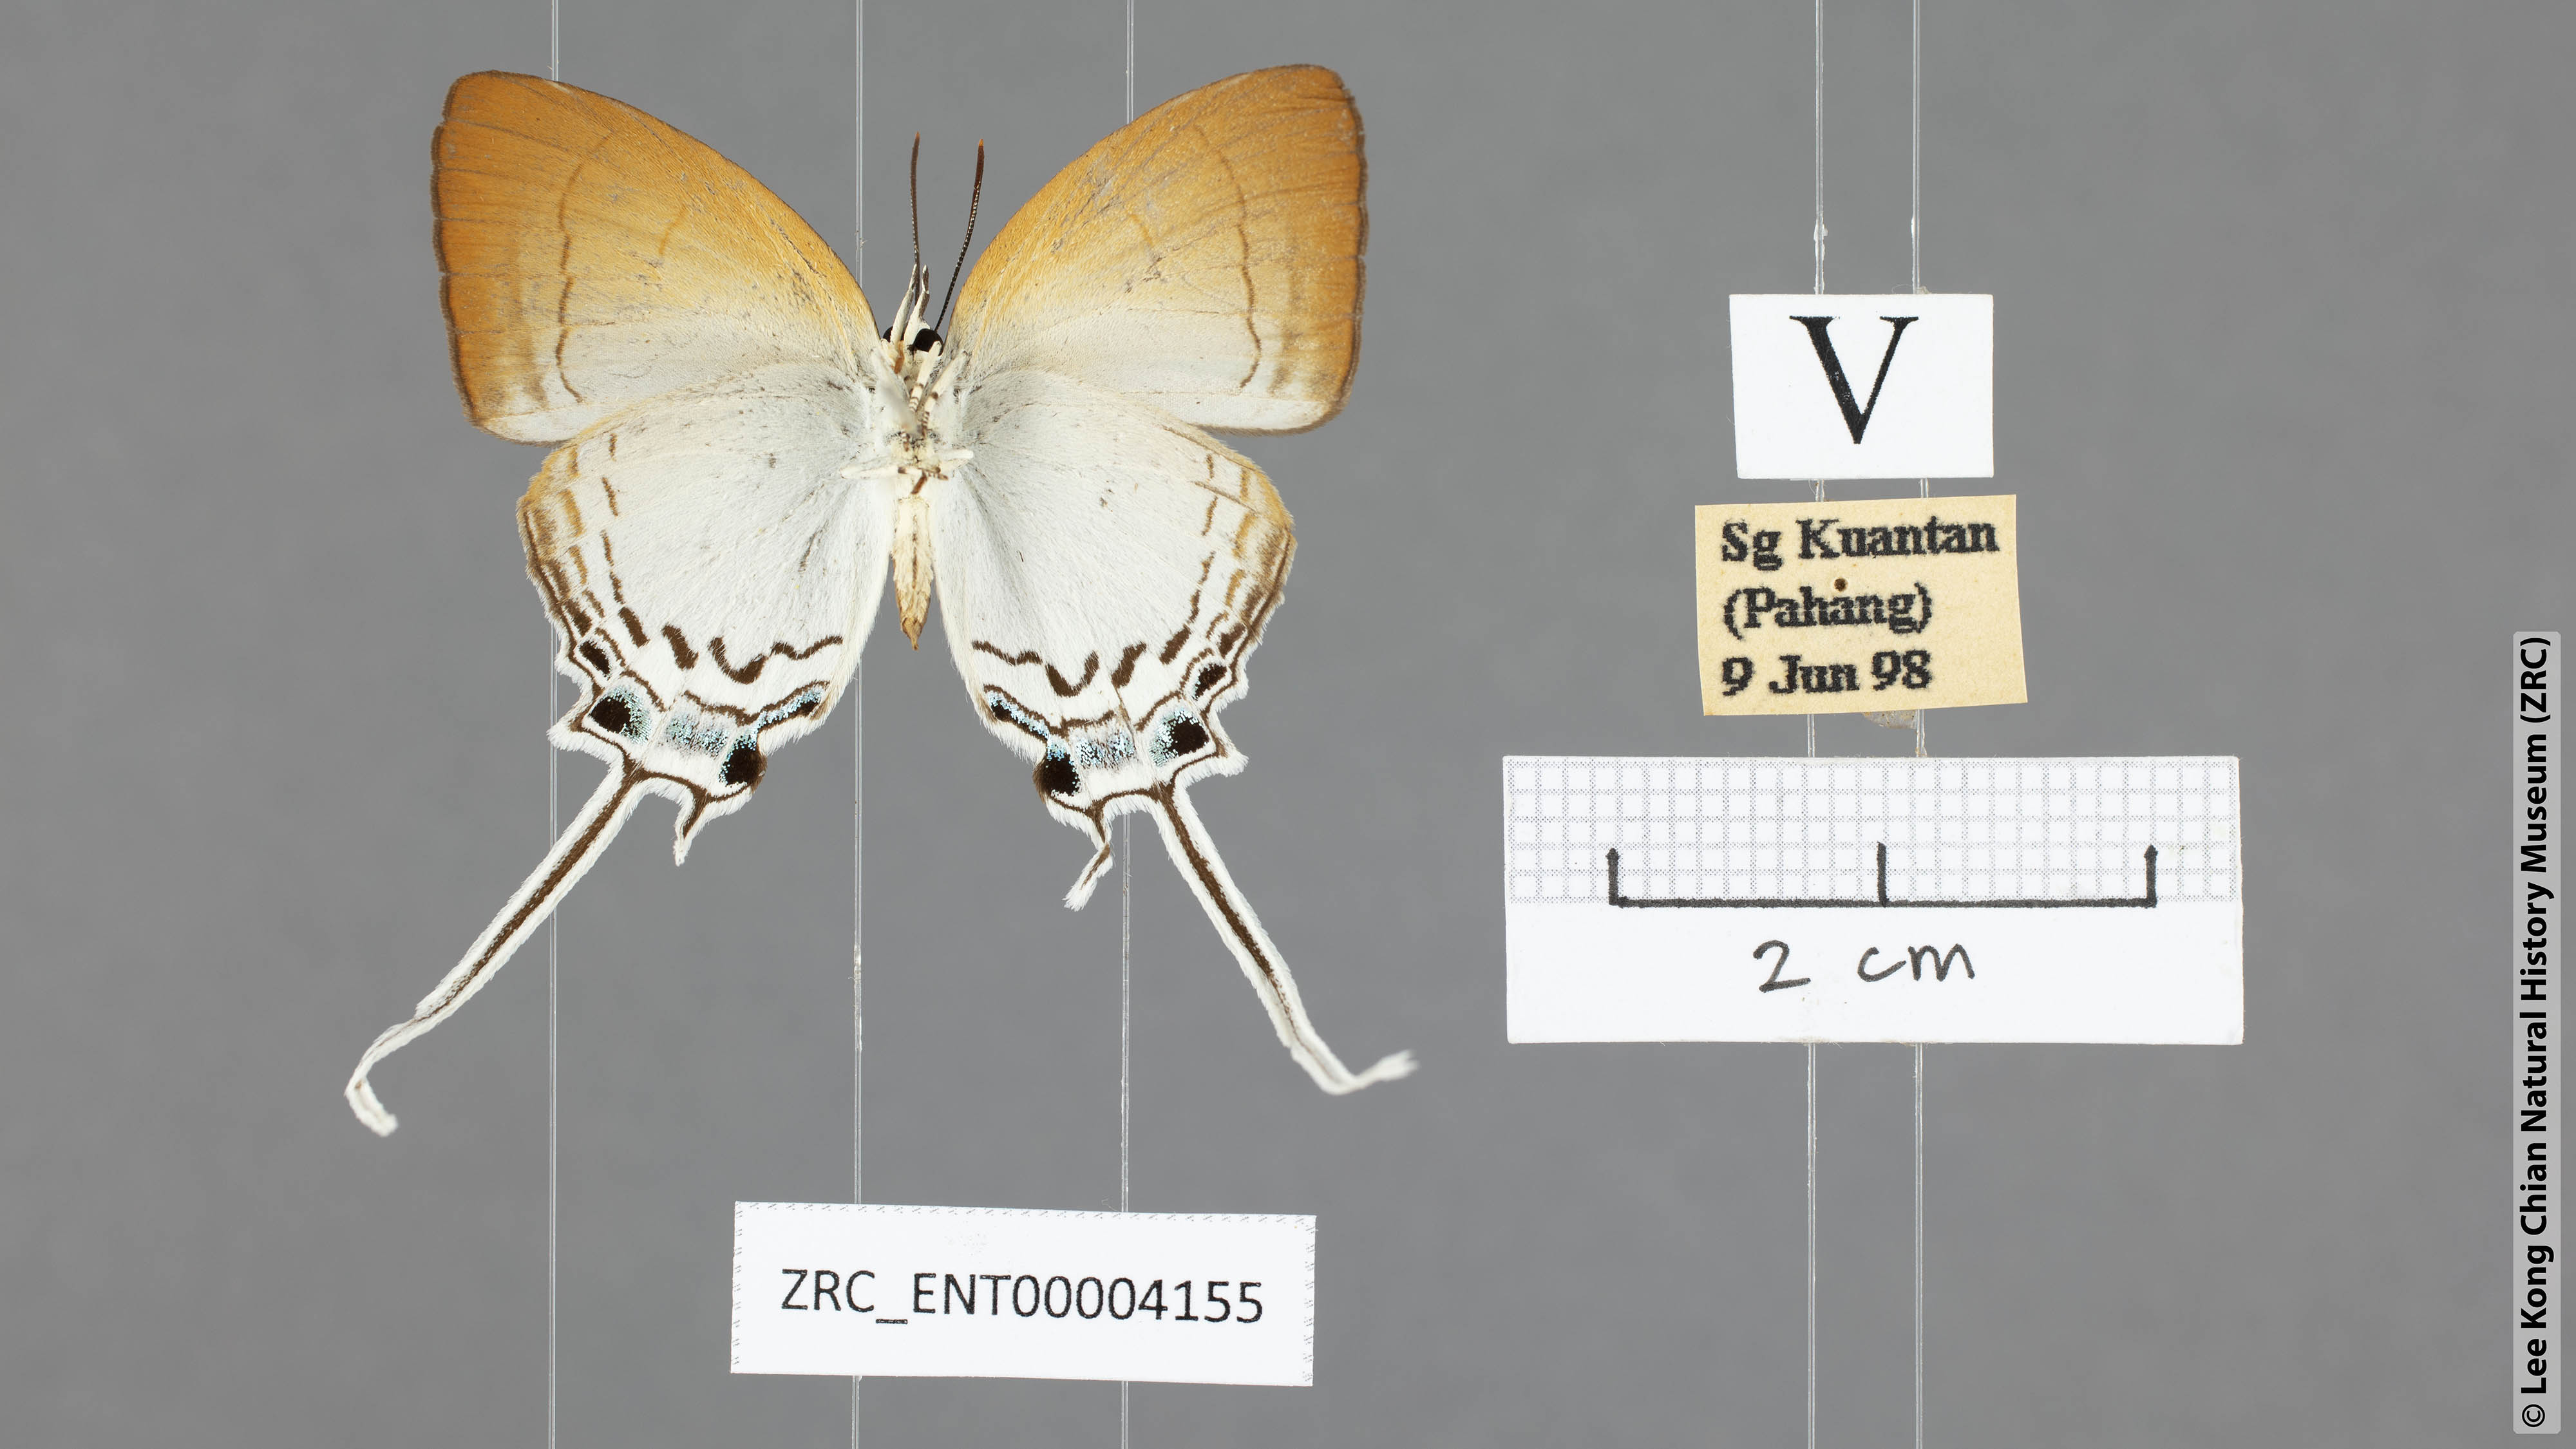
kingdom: Animalia
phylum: Arthropoda
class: Insecta
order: Lepidoptera
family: Lycaenidae
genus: Cheritra
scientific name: Cheritra freja
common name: Common imperial
